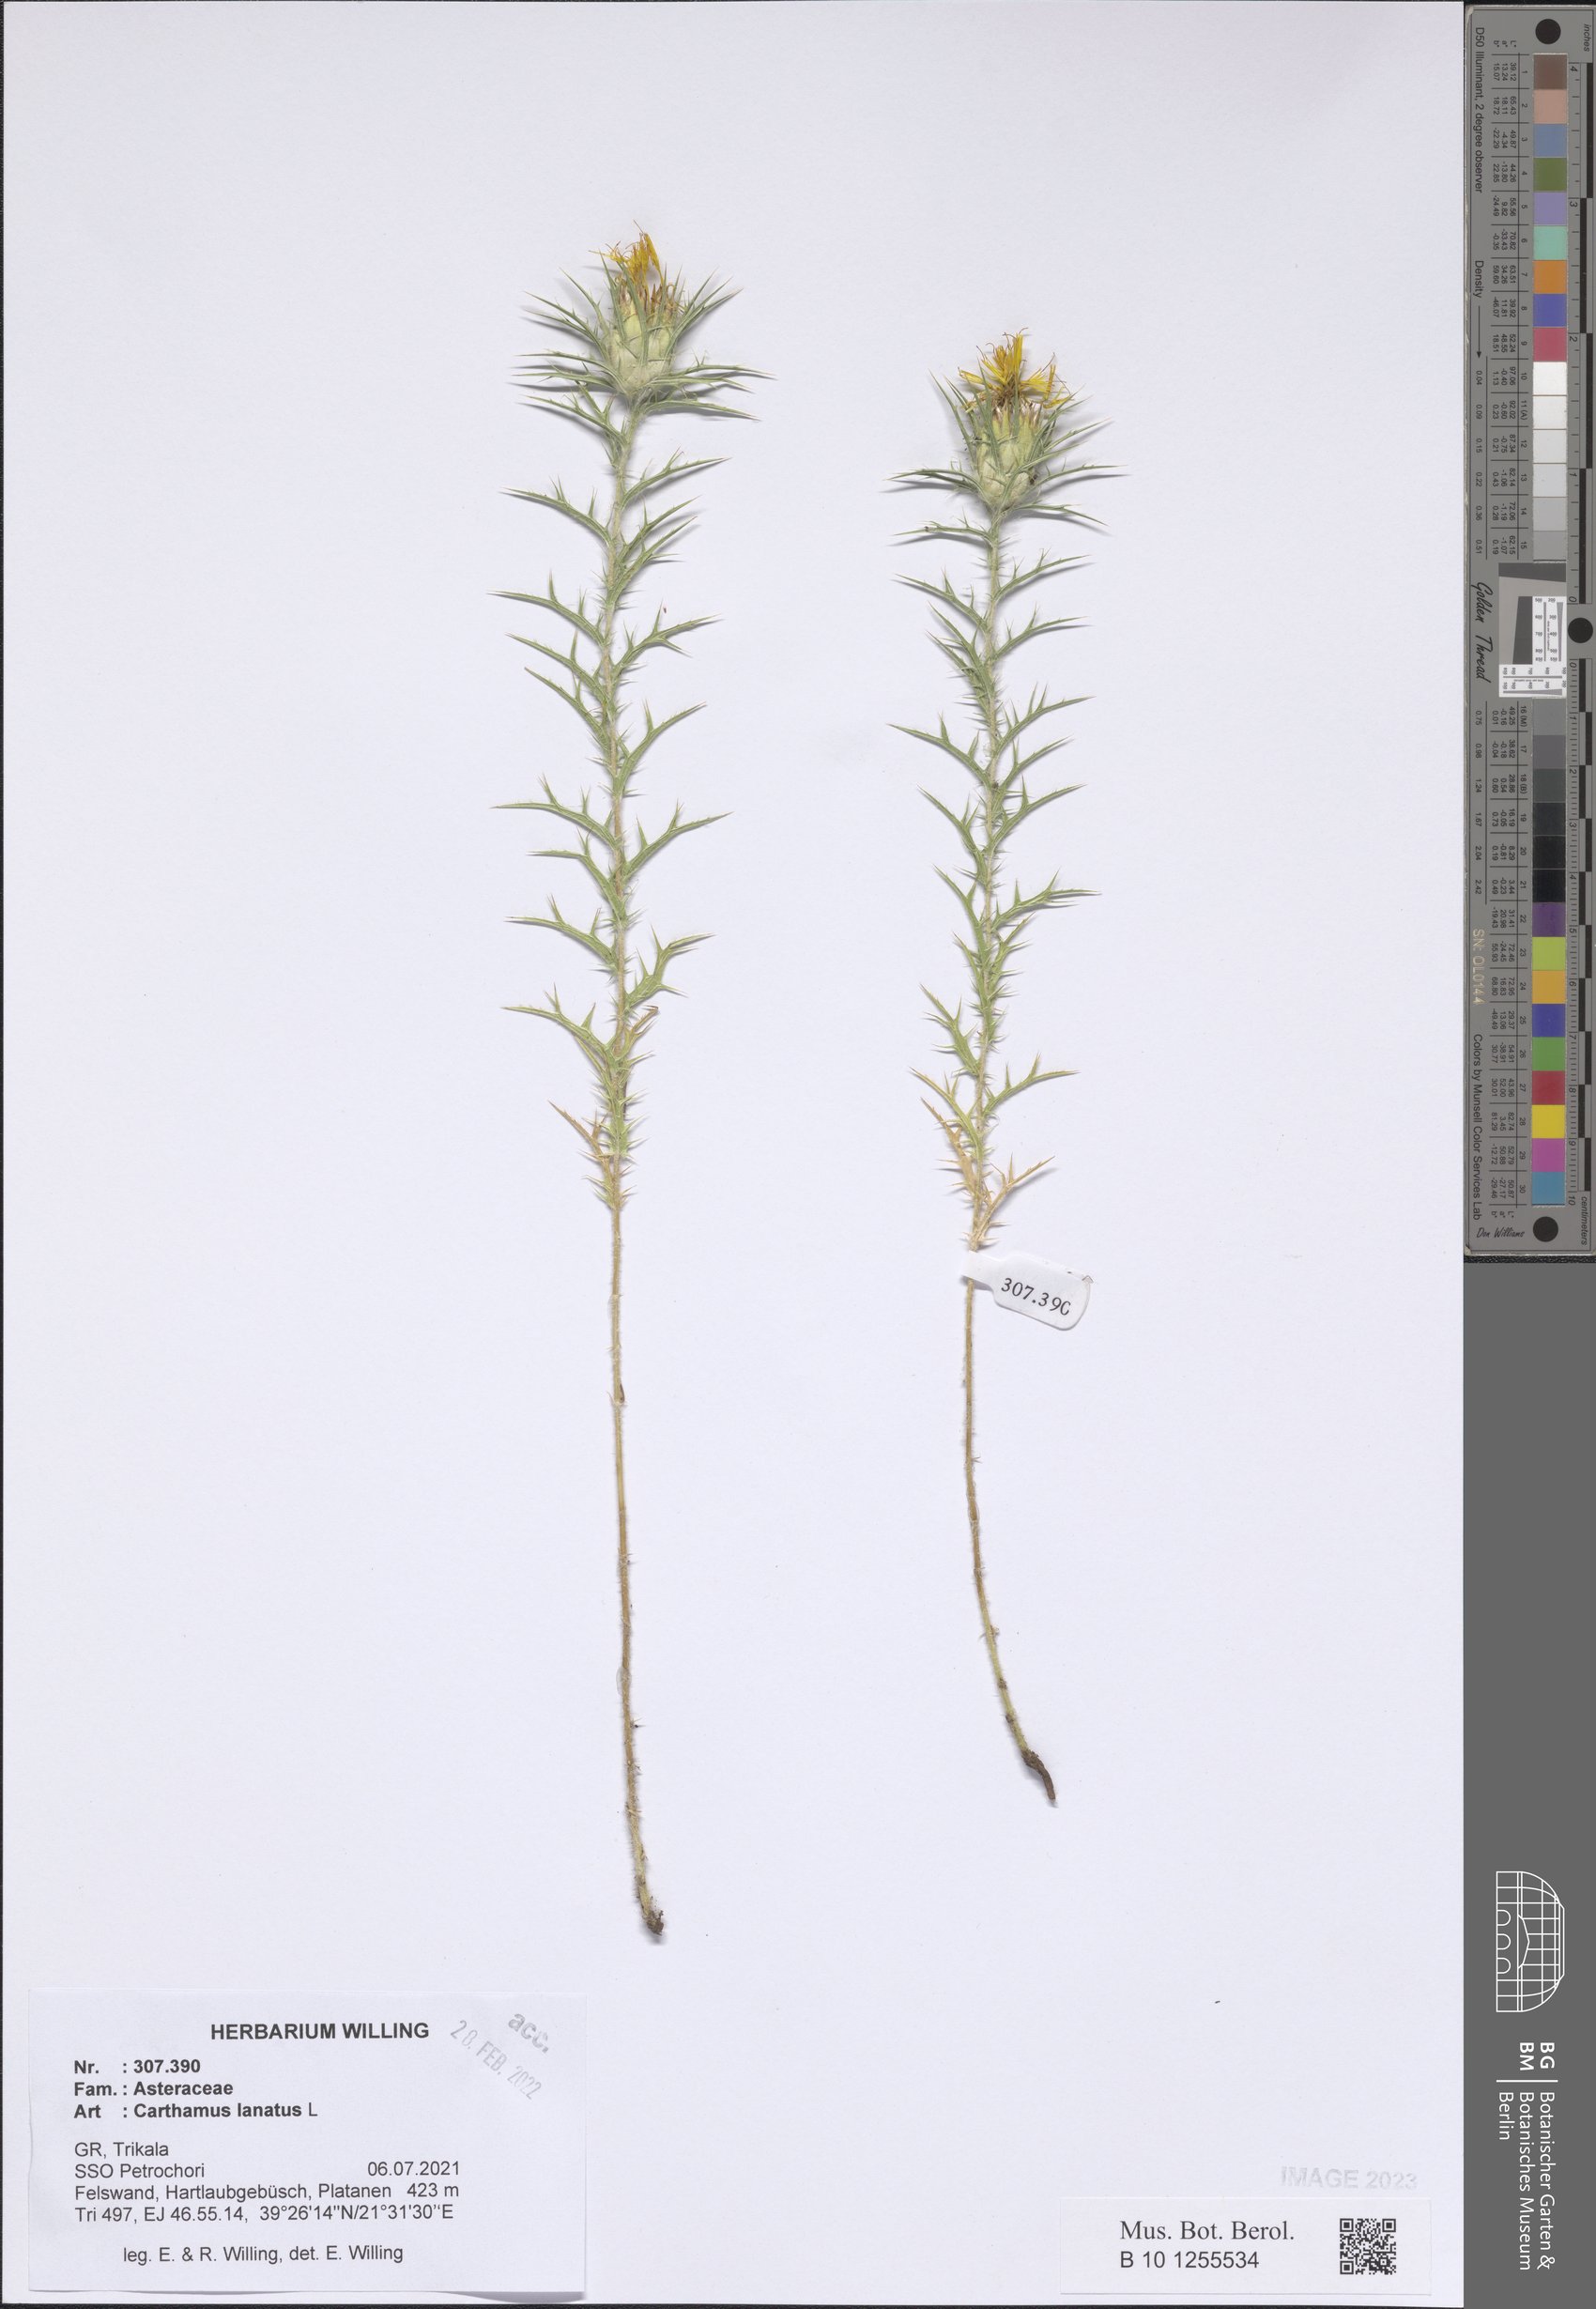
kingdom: Plantae
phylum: Tracheophyta
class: Magnoliopsida
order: Asterales
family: Asteraceae
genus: Carthamus
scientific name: Carthamus lanatus
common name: Downy safflower
